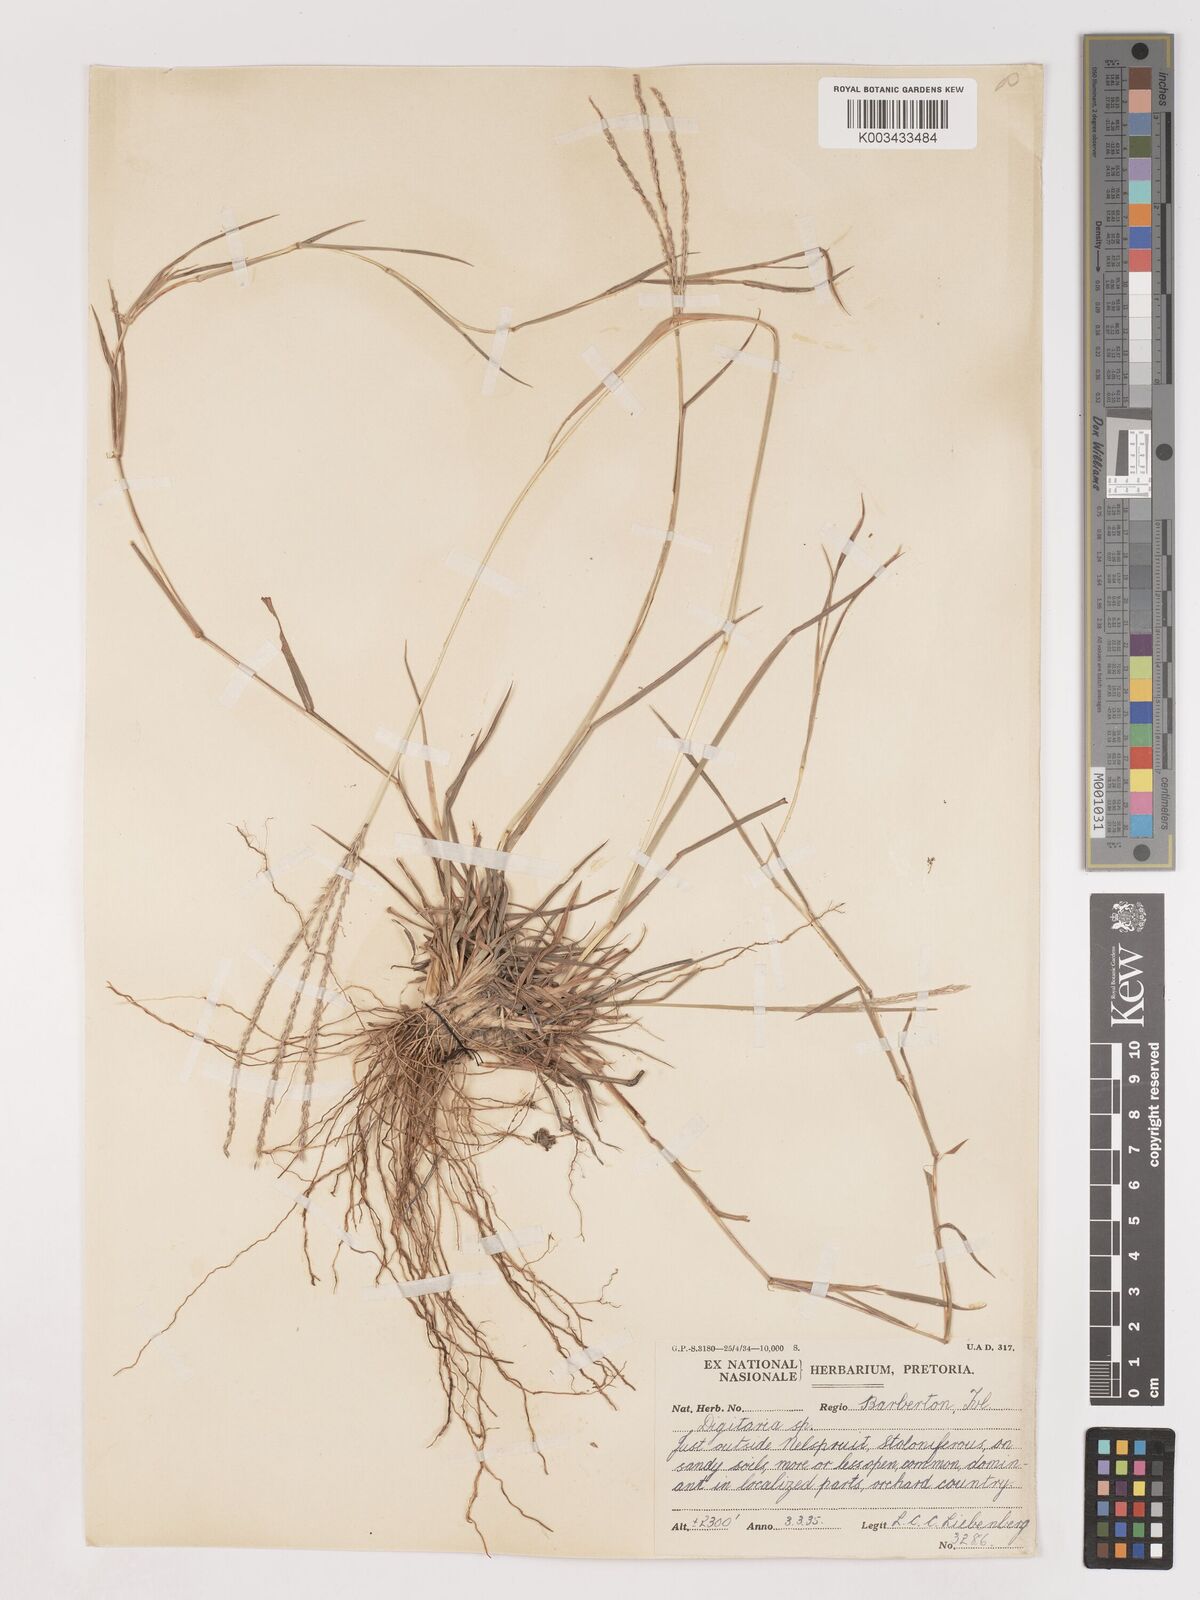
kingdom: Plantae
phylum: Tracheophyta
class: Liliopsida
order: Poales
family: Poaceae
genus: Digitaria
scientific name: Digitaria eriantha
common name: Digitgrass
